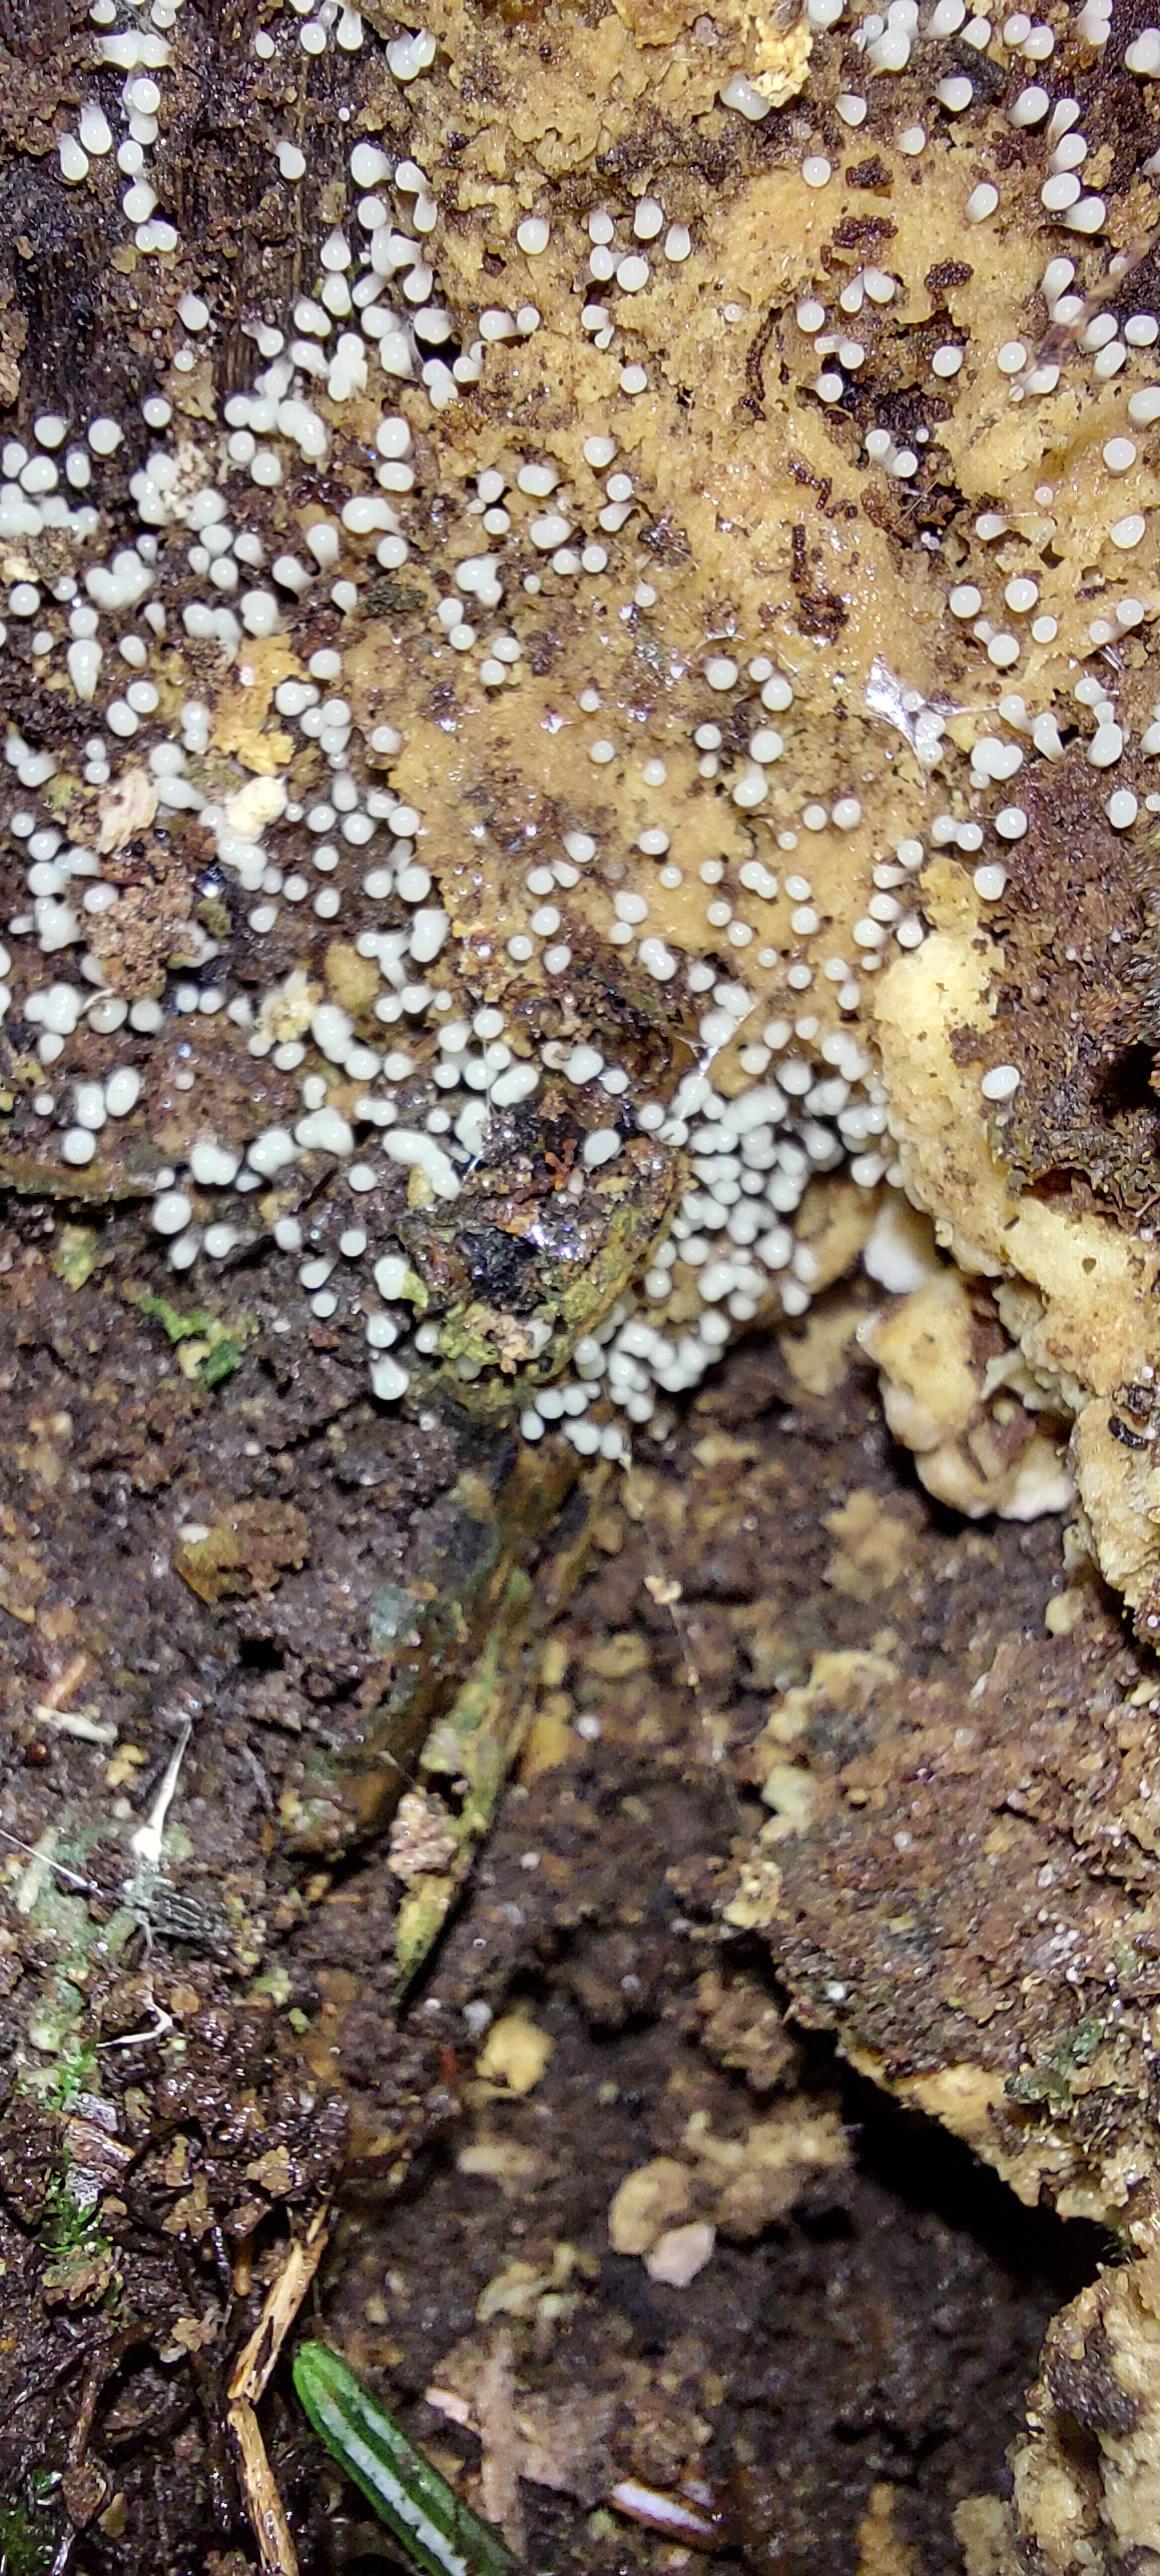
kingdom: Protozoa
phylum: Mycetozoa
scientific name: Mycetozoa
